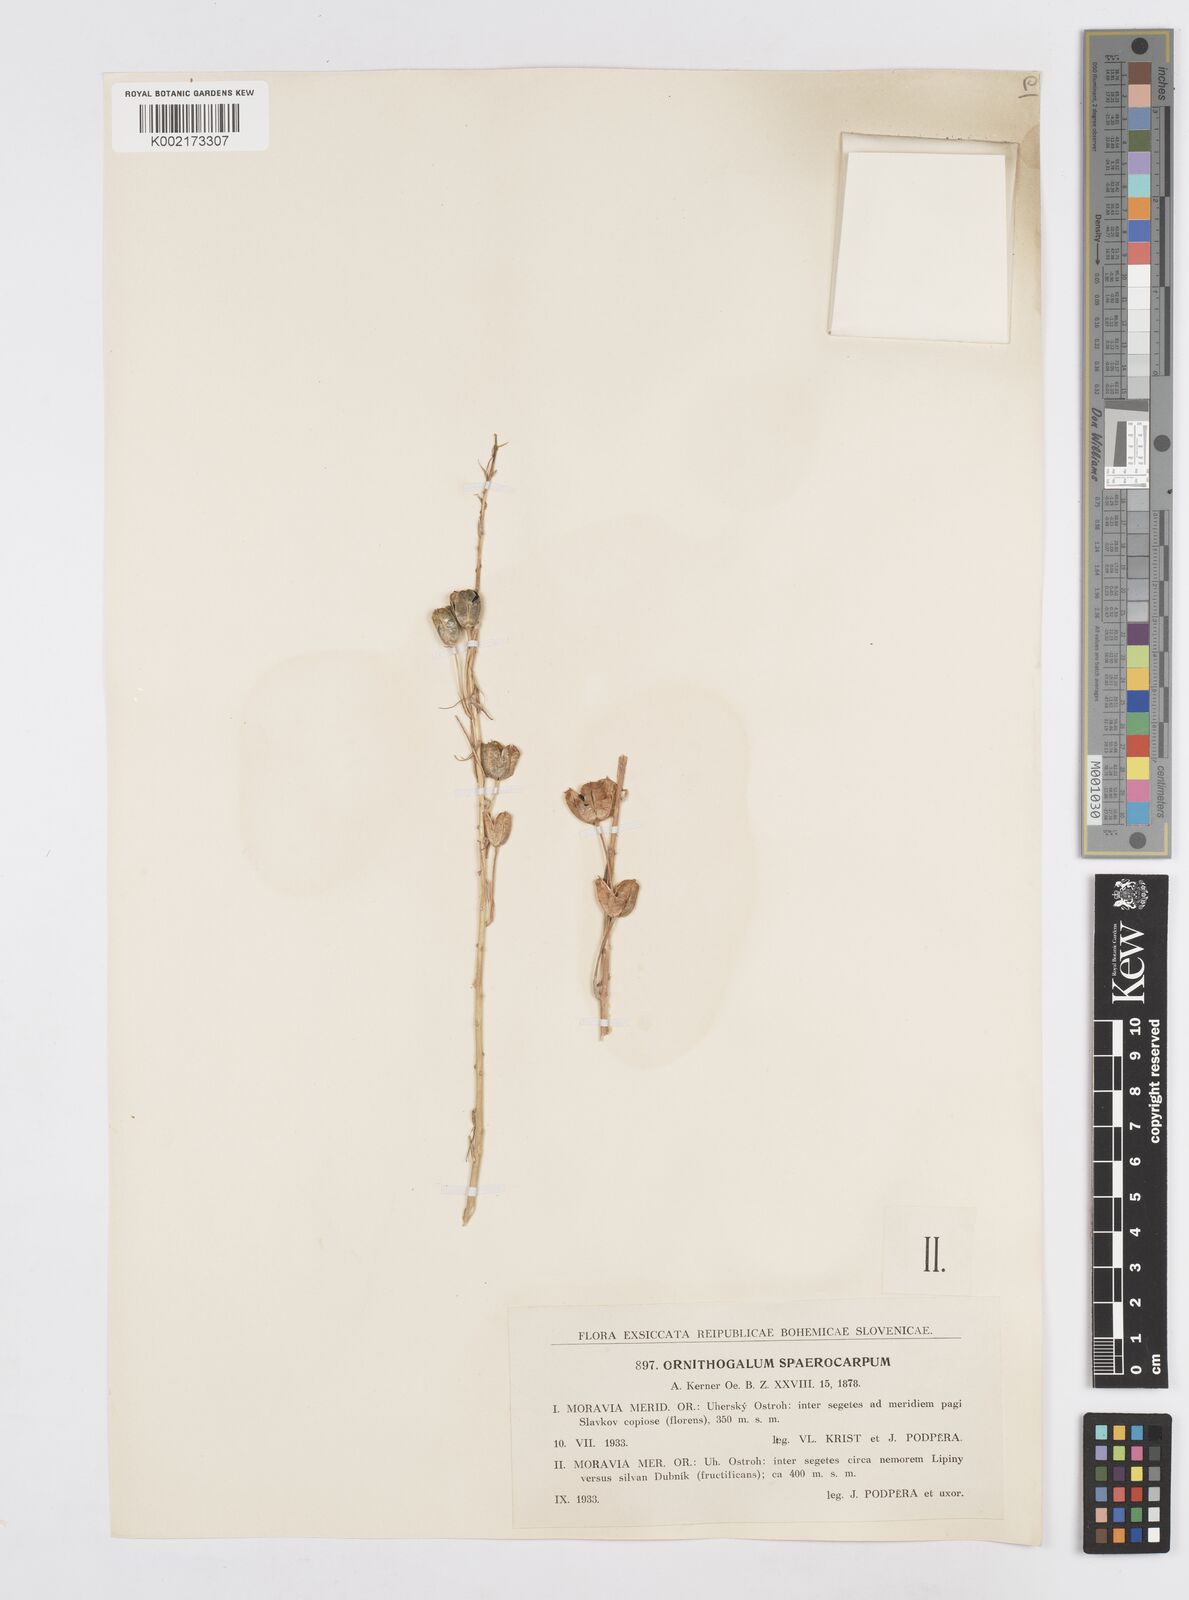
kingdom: Plantae
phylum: Tracheophyta
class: Liliopsida
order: Asparagales
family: Asparagaceae
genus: Ornithogalum
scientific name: Ornithogalum sphaerocarpum
